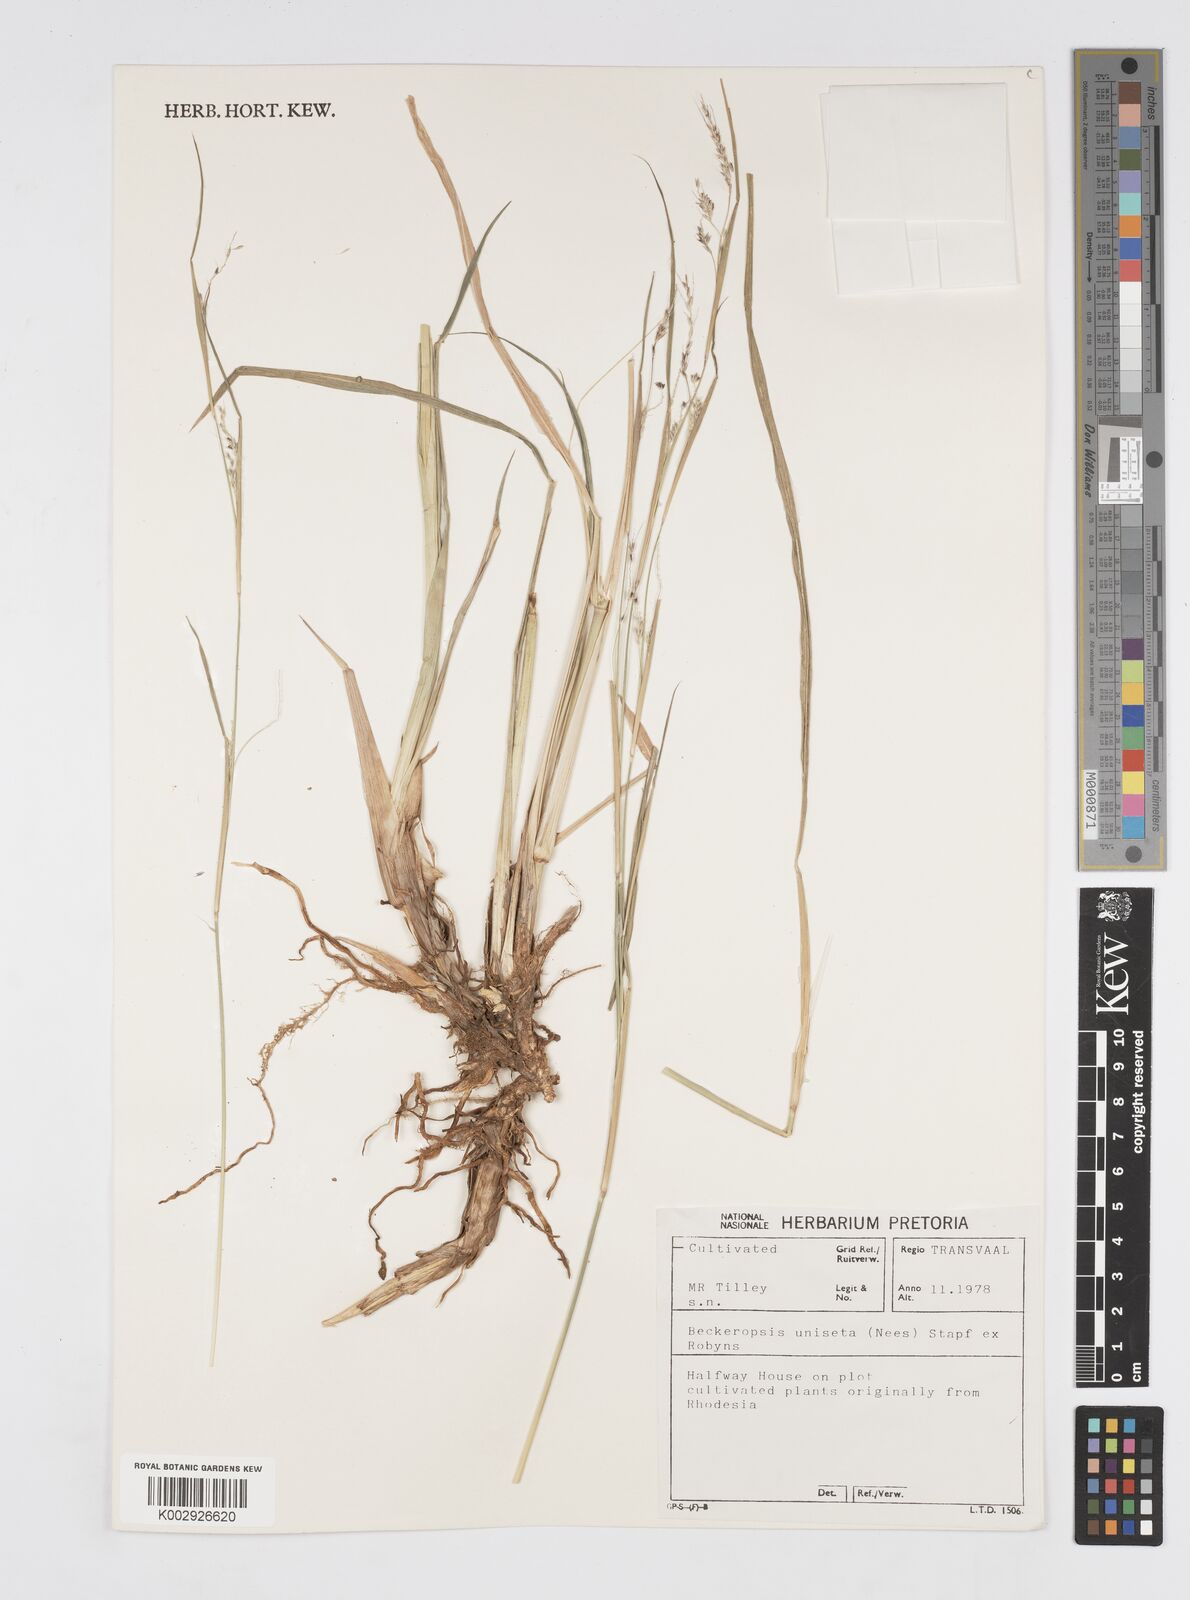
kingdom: Plantae
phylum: Tracheophyta
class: Liliopsida
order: Poales
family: Poaceae
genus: Cenchrus
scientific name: Cenchrus unisetus
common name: Natal grass
